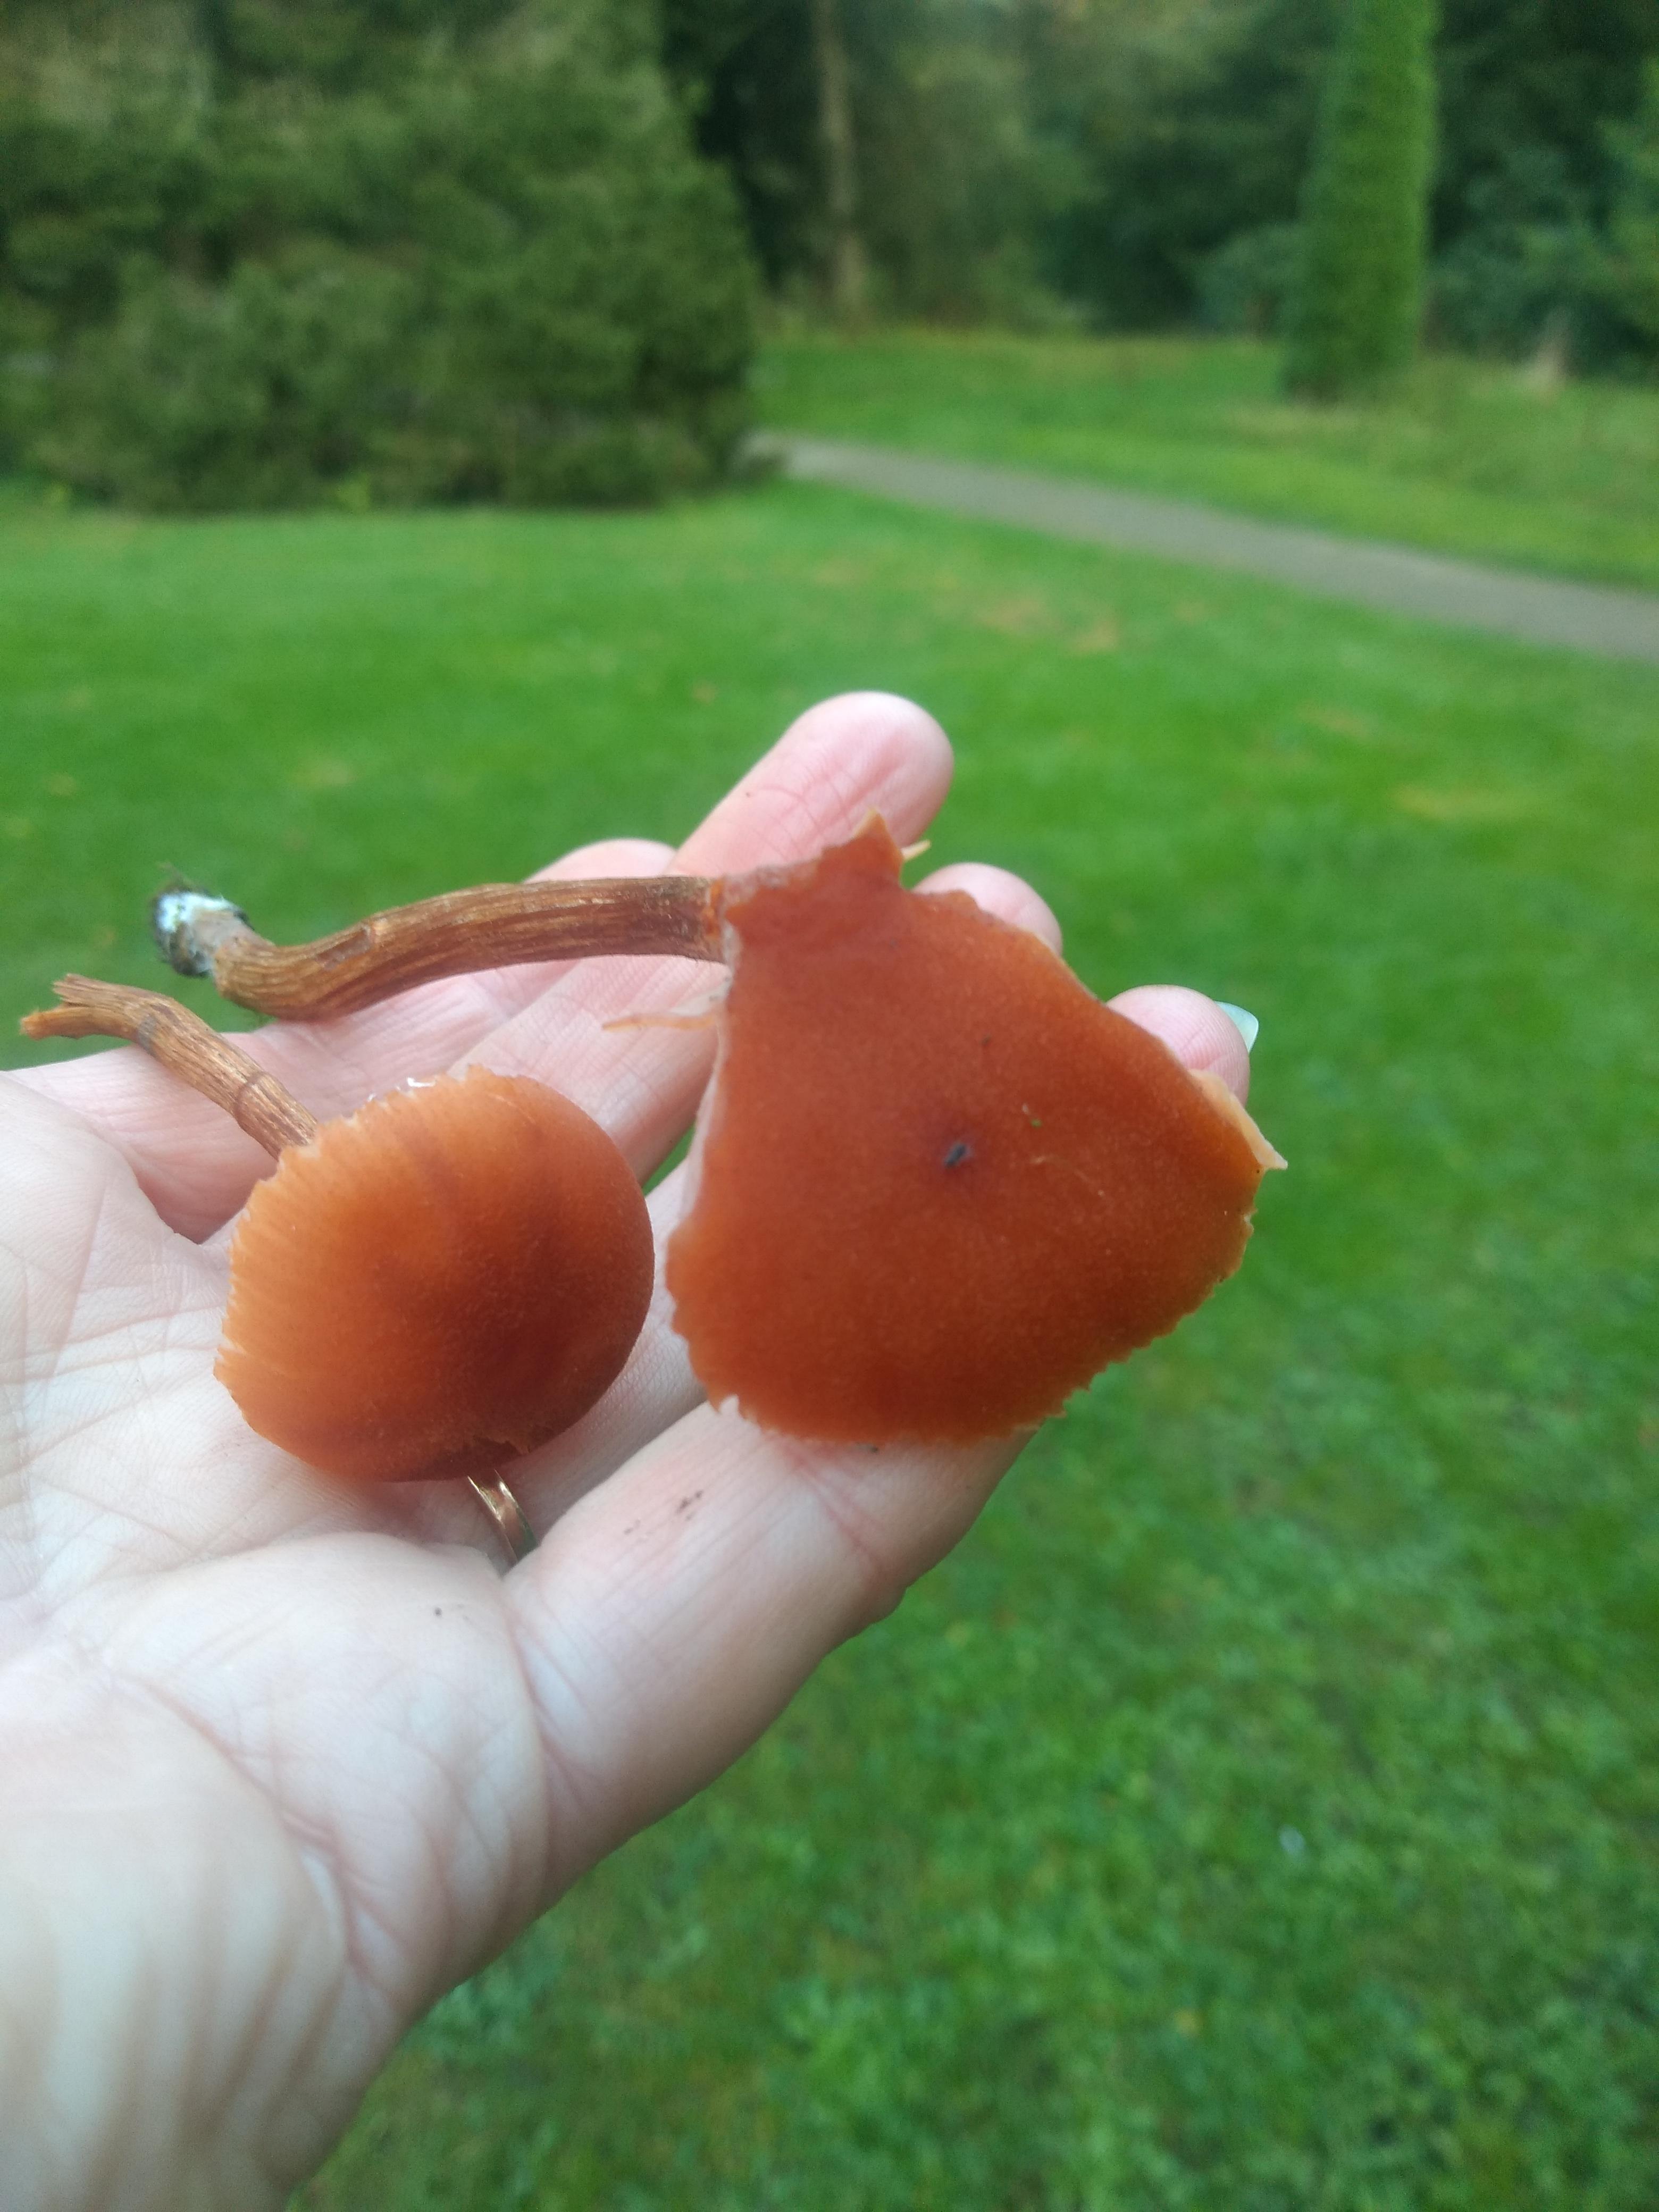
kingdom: Fungi
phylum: Basidiomycota
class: Agaricomycetes
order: Agaricales
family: Hydnangiaceae
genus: Laccaria
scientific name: Laccaria proxima
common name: stor ametysthat
